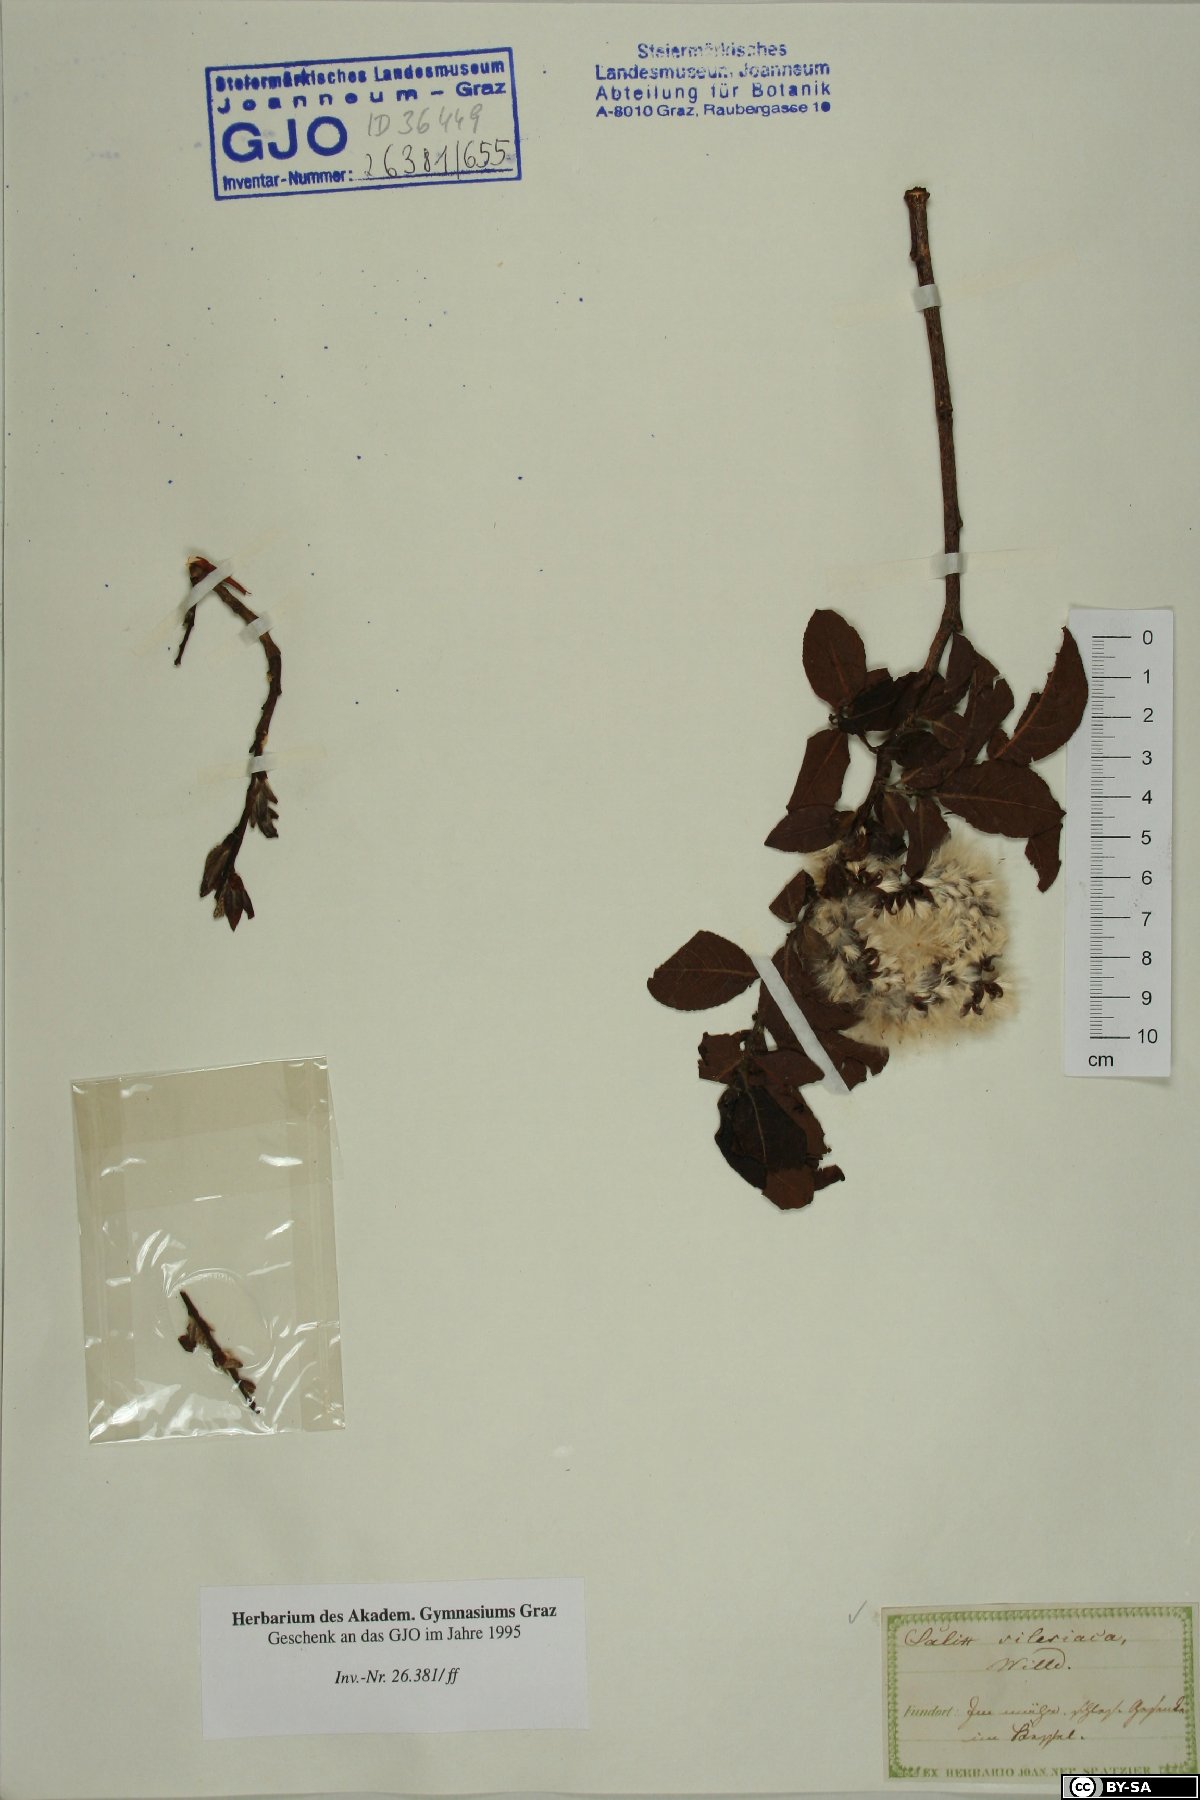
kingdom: Plantae
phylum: Tracheophyta
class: Magnoliopsida
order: Malpighiales
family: Salicaceae
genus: Salix
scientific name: Salix silesiaca
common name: Silesian willow
